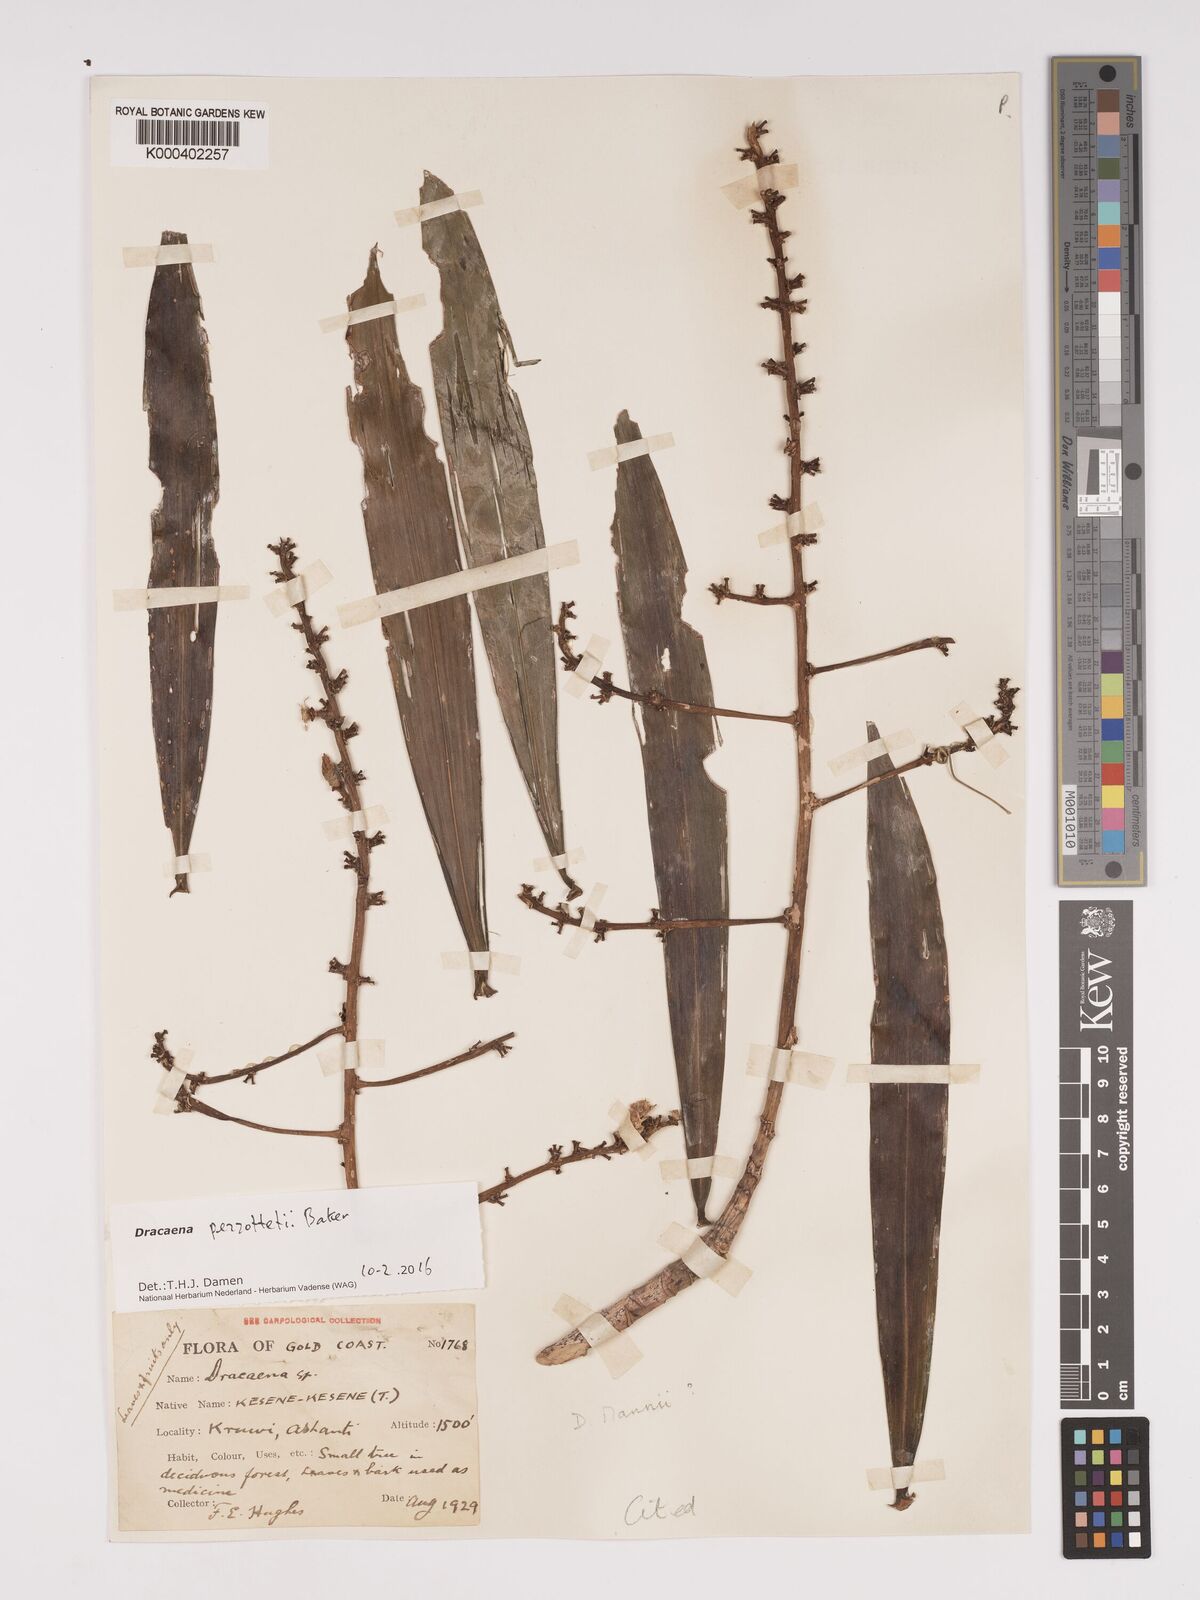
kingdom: Plantae
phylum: Tracheophyta
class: Liliopsida
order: Asparagales
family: Asparagaceae
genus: Dracaena
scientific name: Dracaena perrottetii
